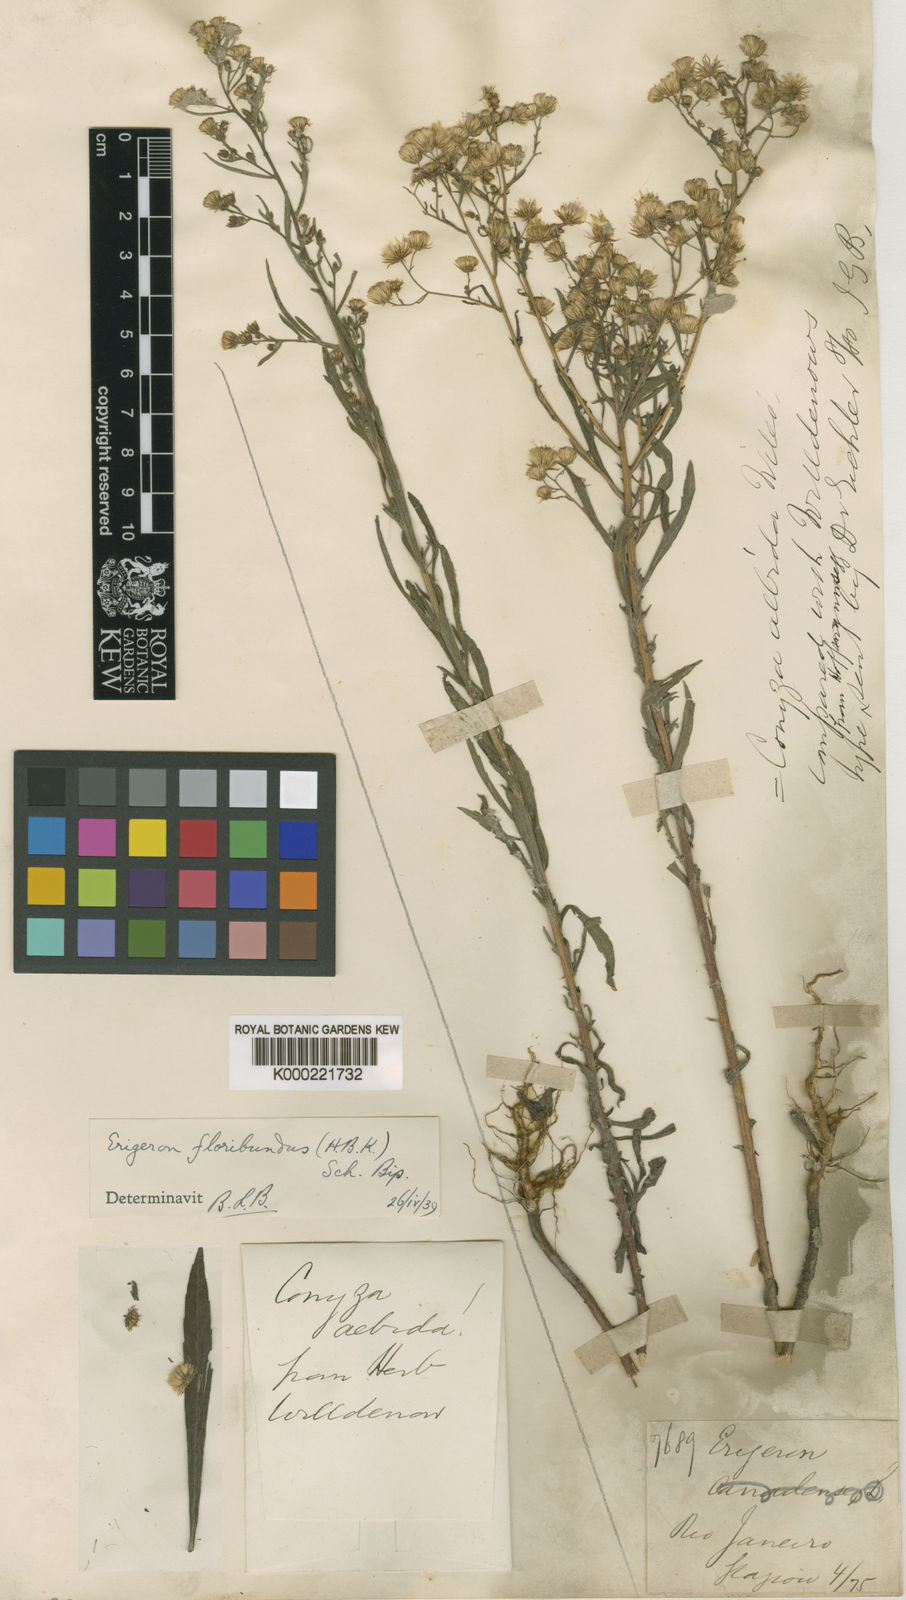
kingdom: Plantae
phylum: Tracheophyta
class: Magnoliopsida
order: Asterales
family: Asteraceae
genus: Erigeron
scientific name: Erigeron sumatrensis
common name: Daisy
